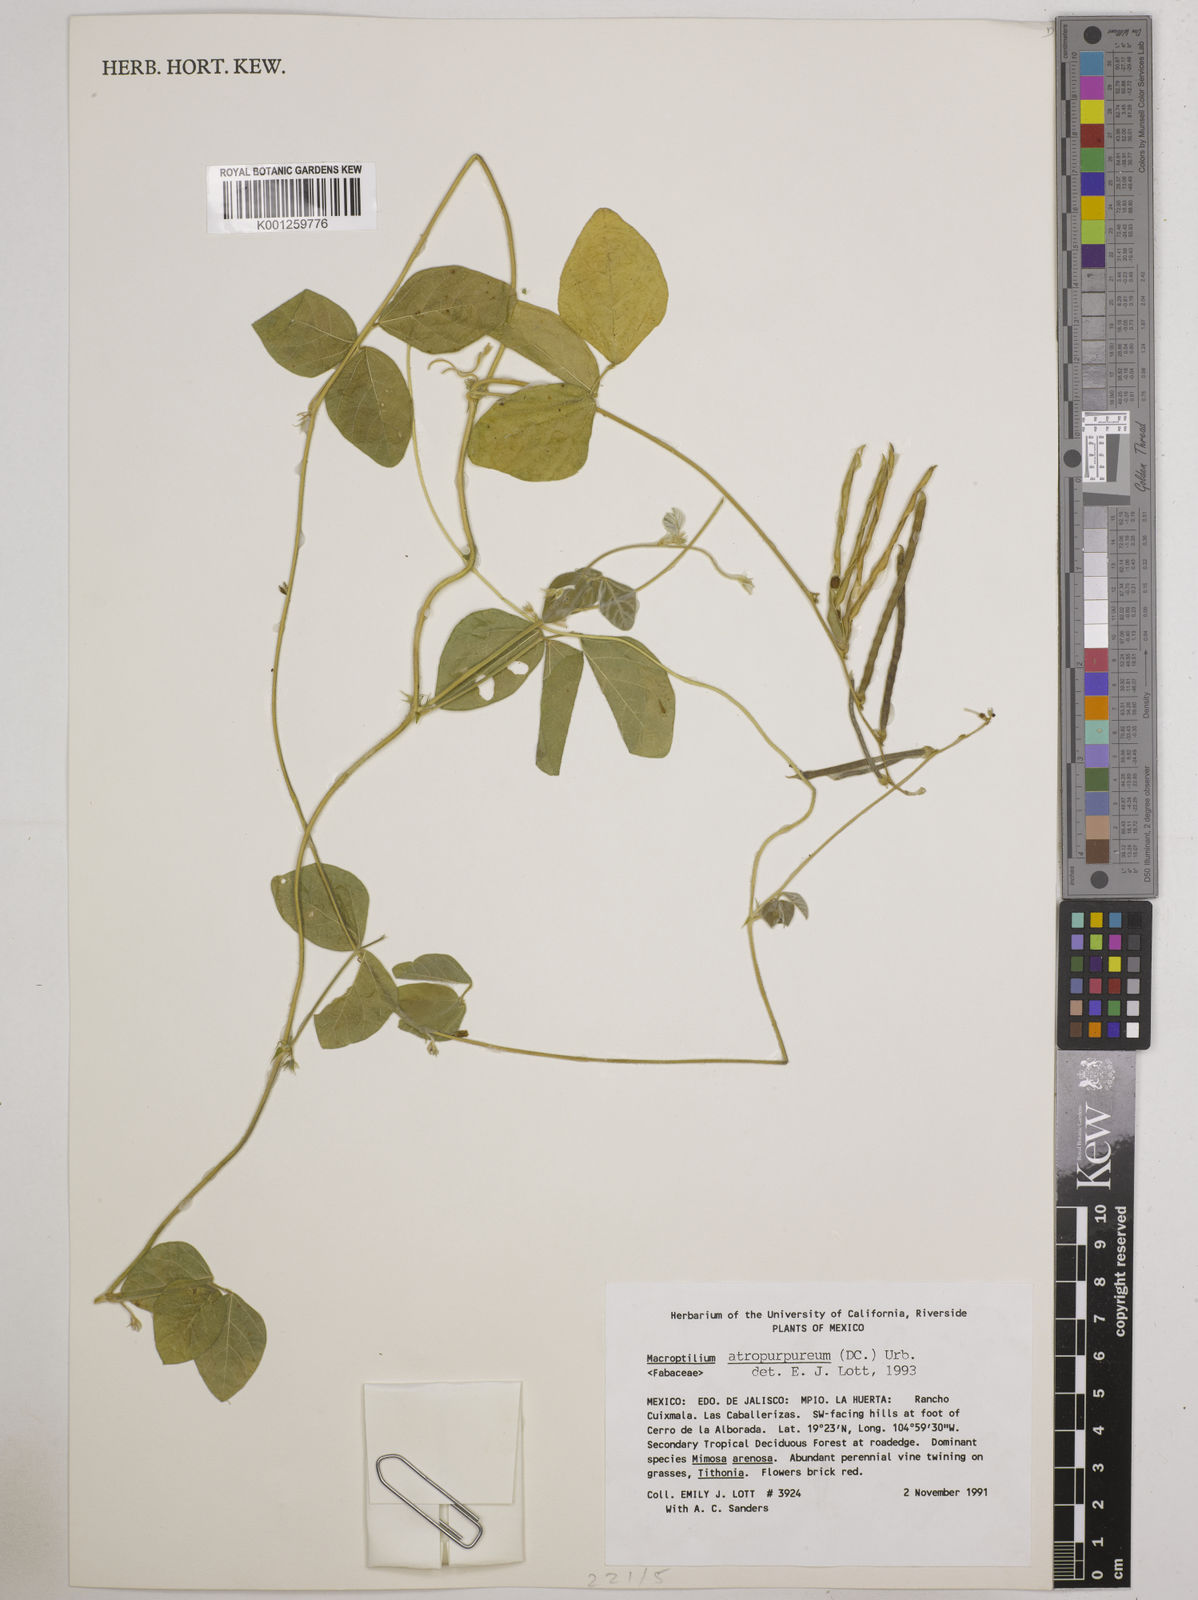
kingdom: Plantae
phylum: Tracheophyta
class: Magnoliopsida
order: Fabales
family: Fabaceae
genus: Macroptilium
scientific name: Macroptilium atropurpureum
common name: Purple bushbean
